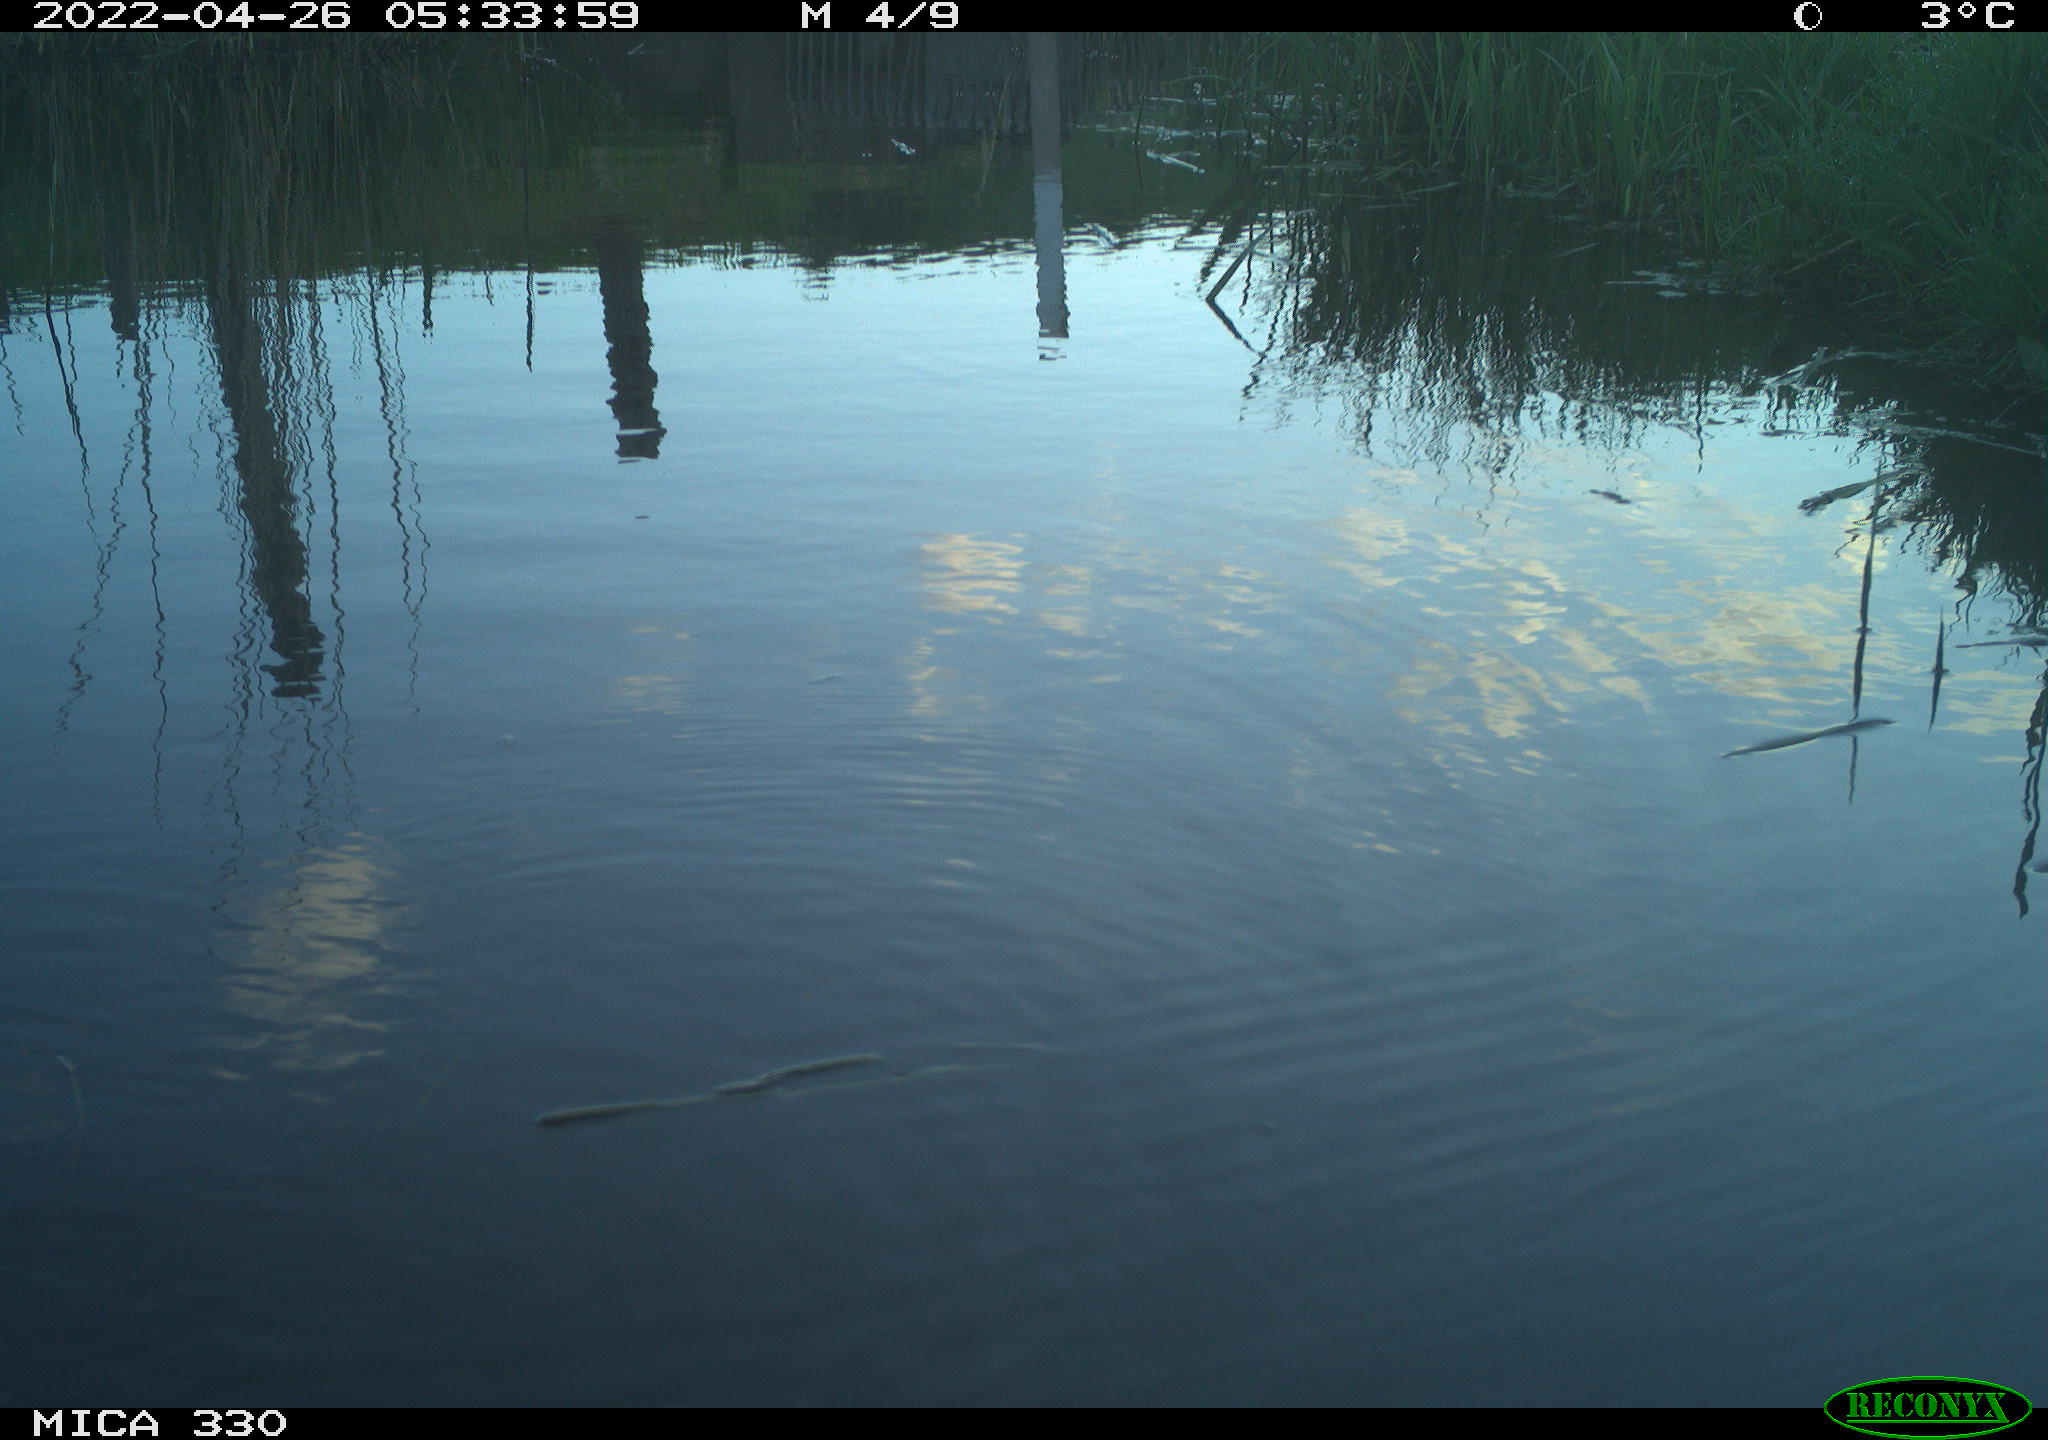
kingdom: Animalia
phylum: Chordata
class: Aves
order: Anseriformes
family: Anatidae
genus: Anas
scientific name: Anas platyrhynchos
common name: Mallard
